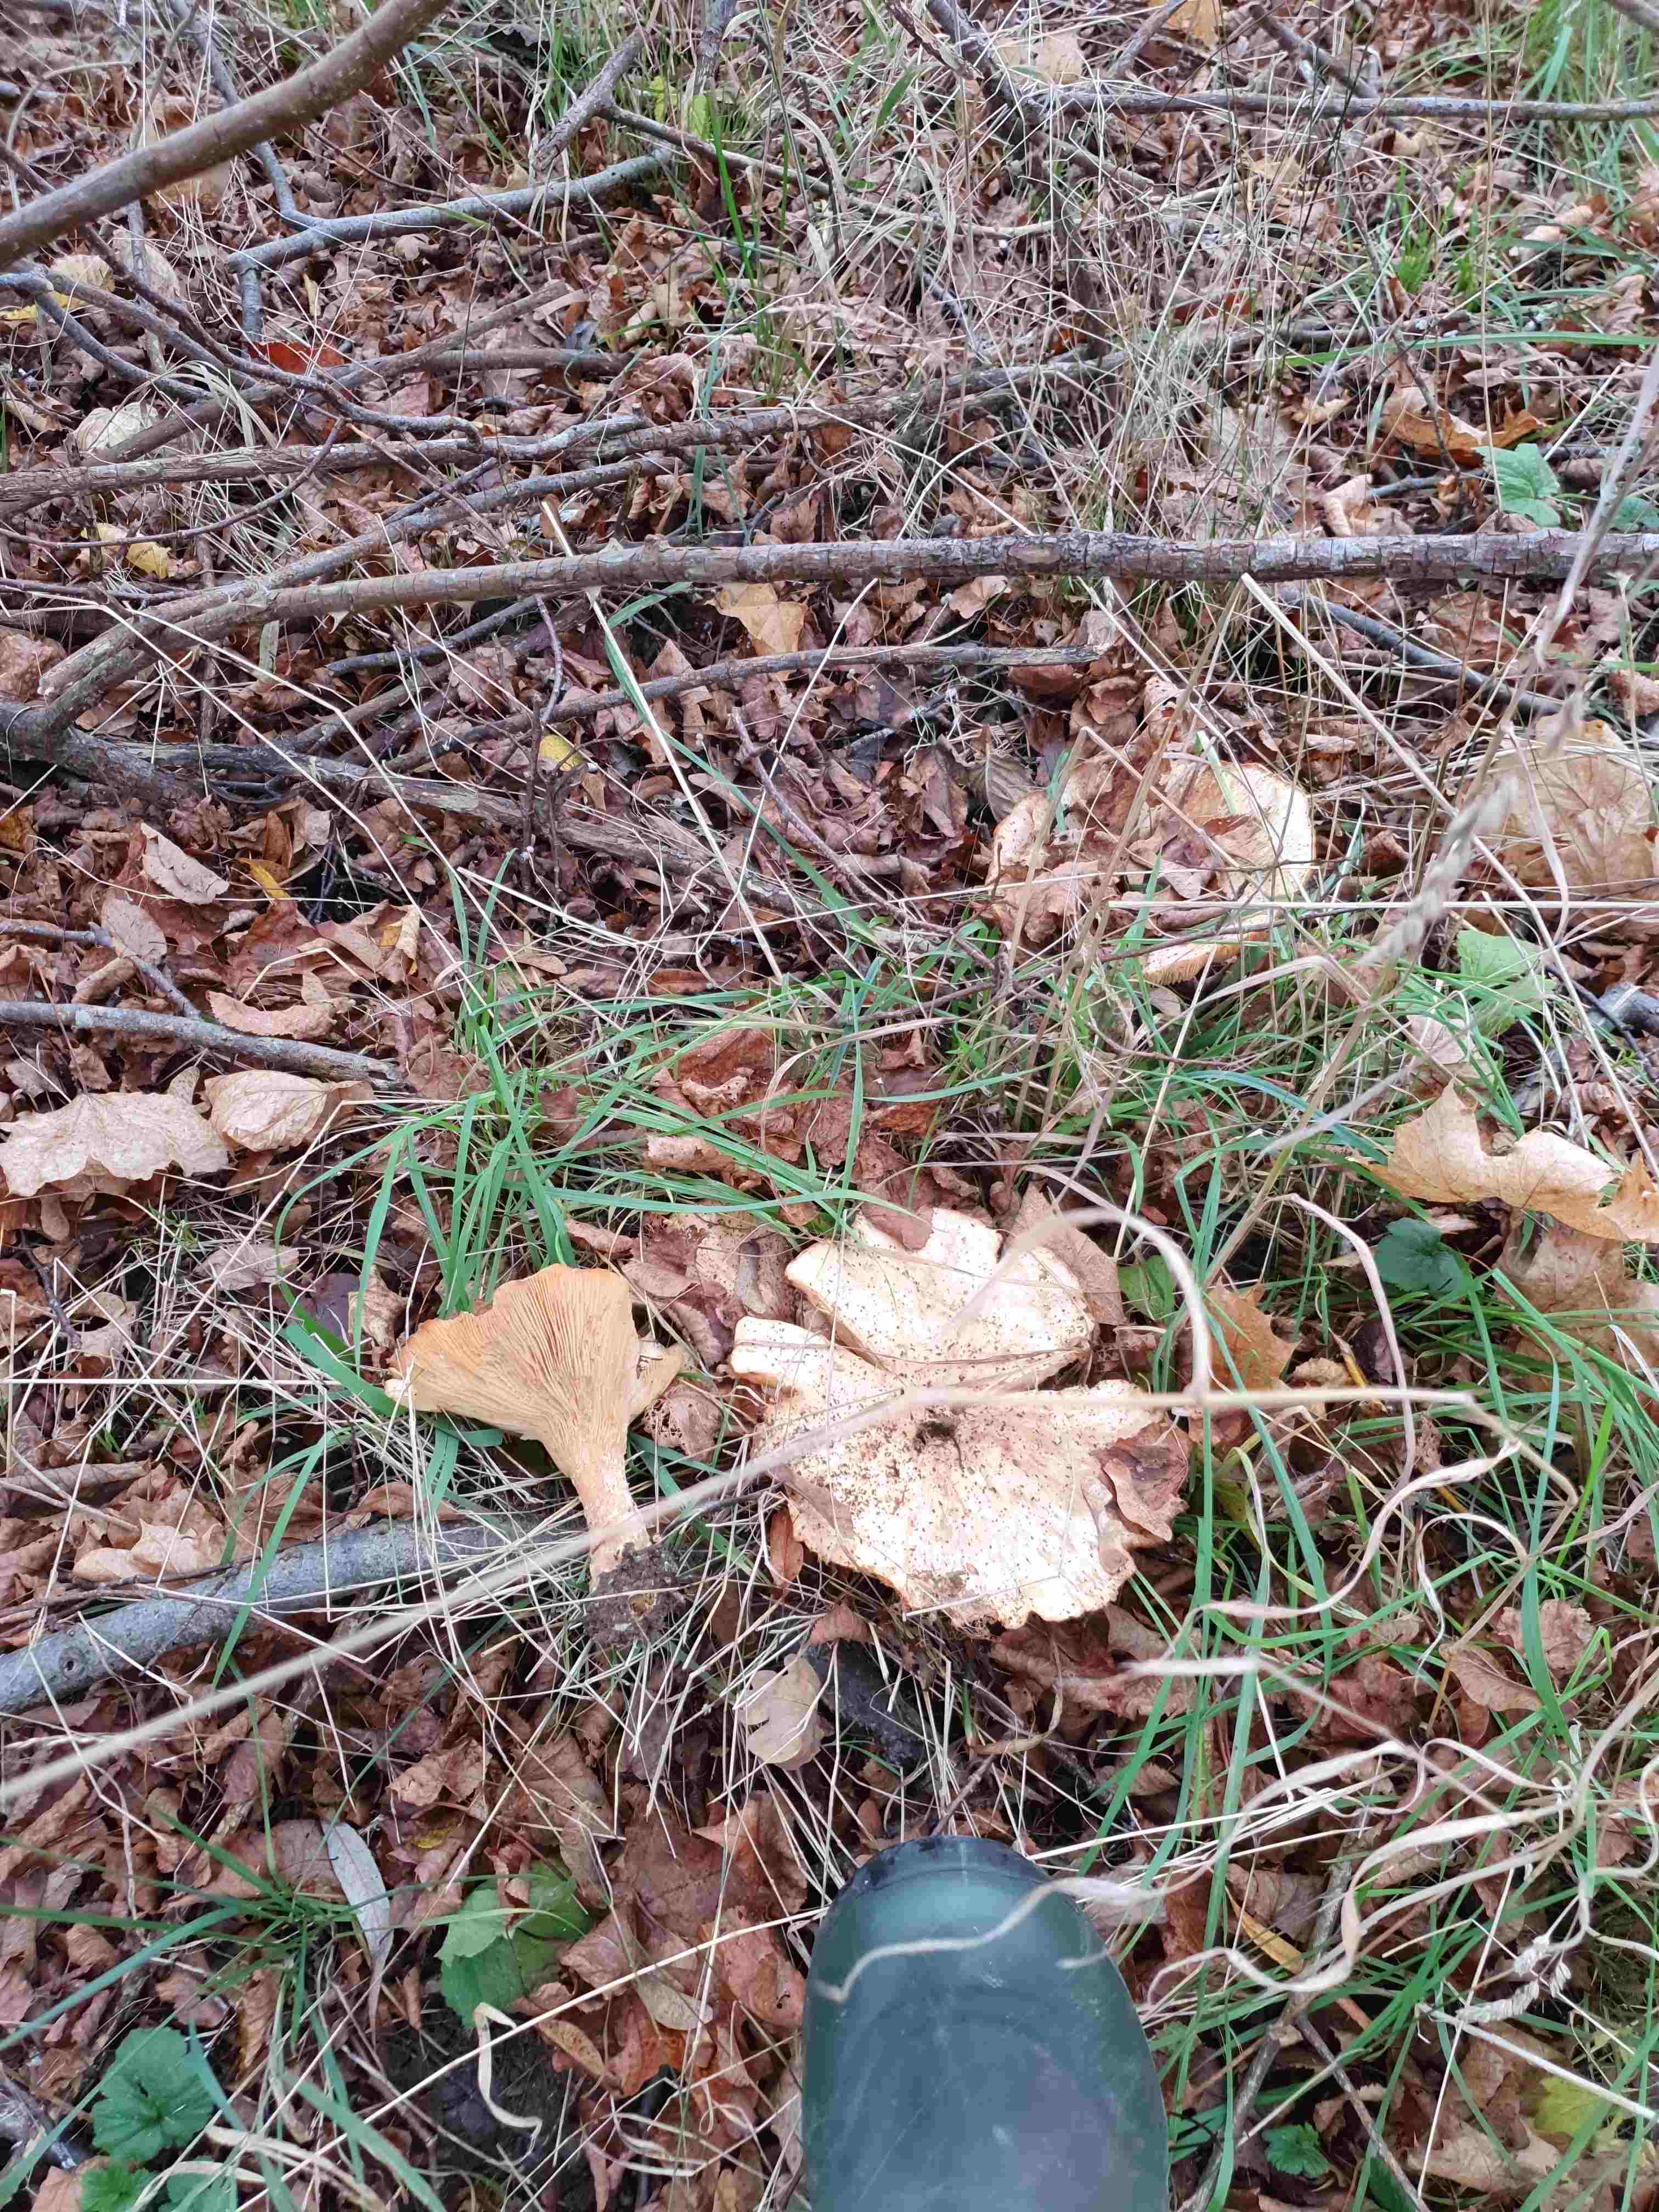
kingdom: Fungi
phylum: Basidiomycota
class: Agaricomycetes
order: Agaricales
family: Tricholomataceae
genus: Infundibulicybe
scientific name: Infundibulicybe geotropa
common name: stor tragthat
